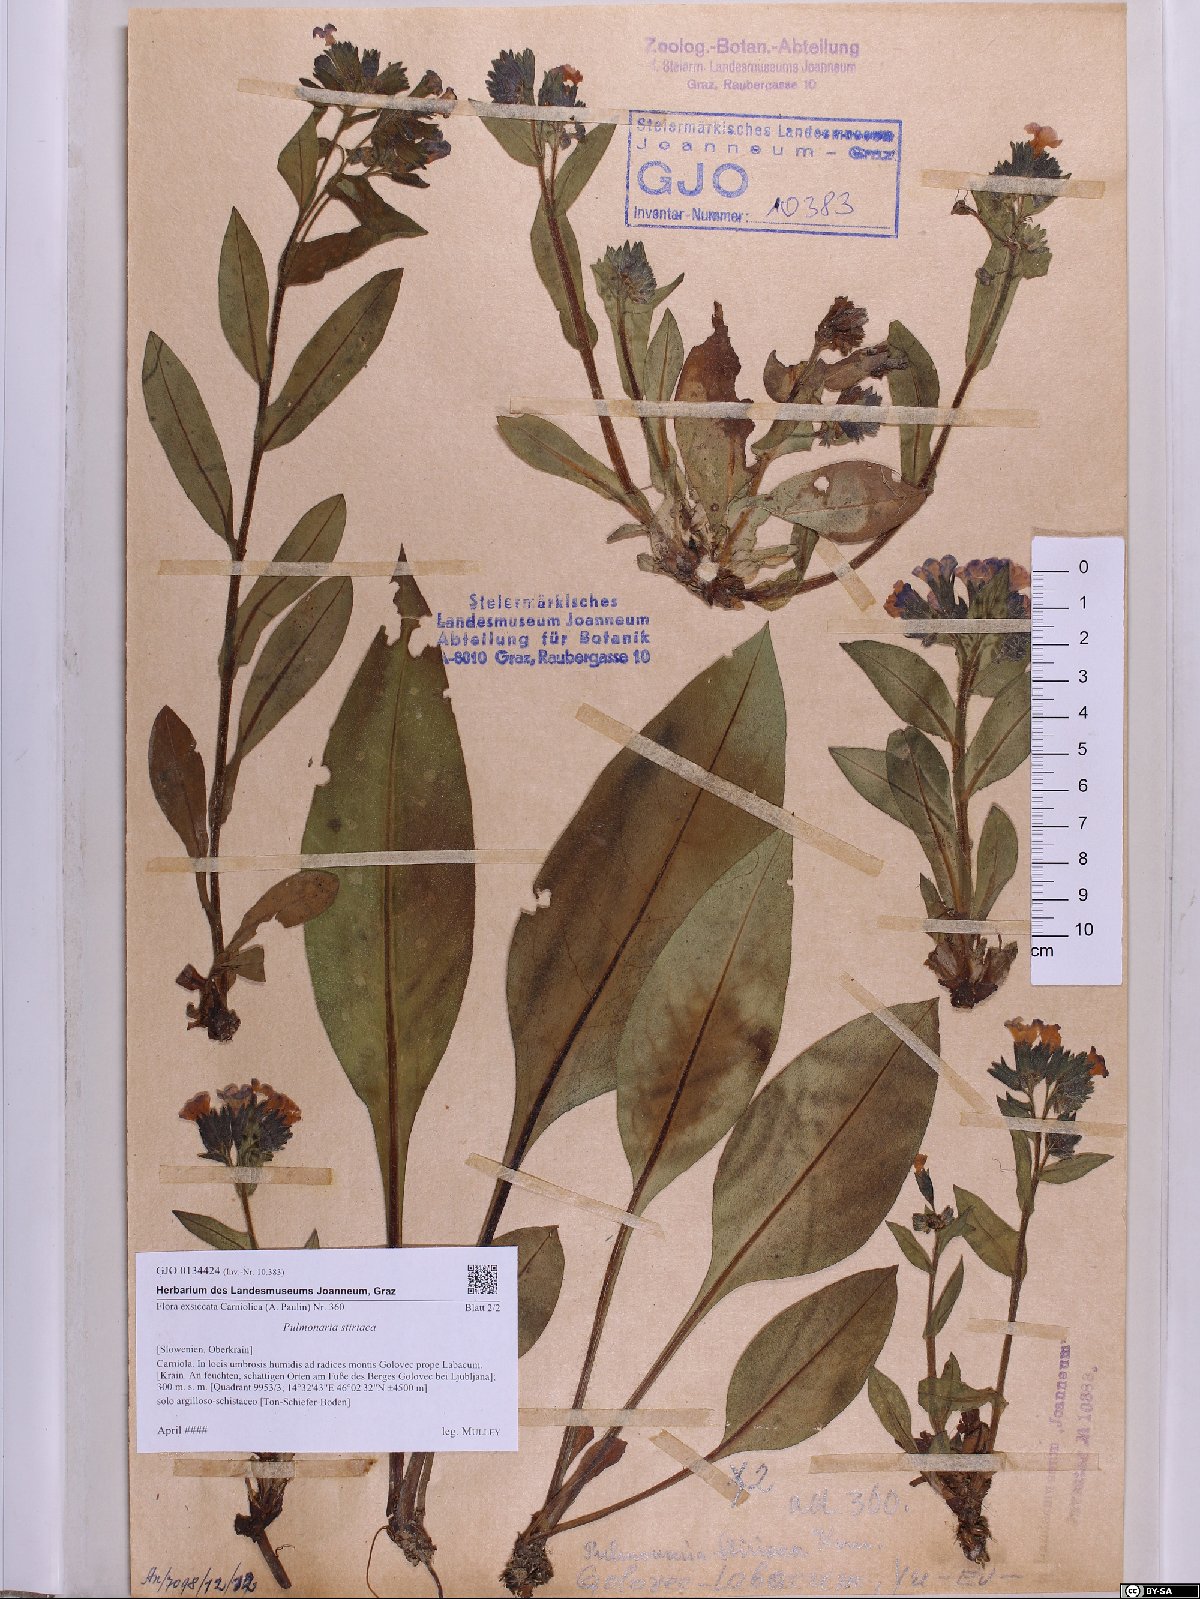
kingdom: Plantae
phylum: Tracheophyta
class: Magnoliopsida
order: Boraginales
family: Boraginaceae
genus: Pulmonaria
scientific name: Pulmonaria stiriaca
